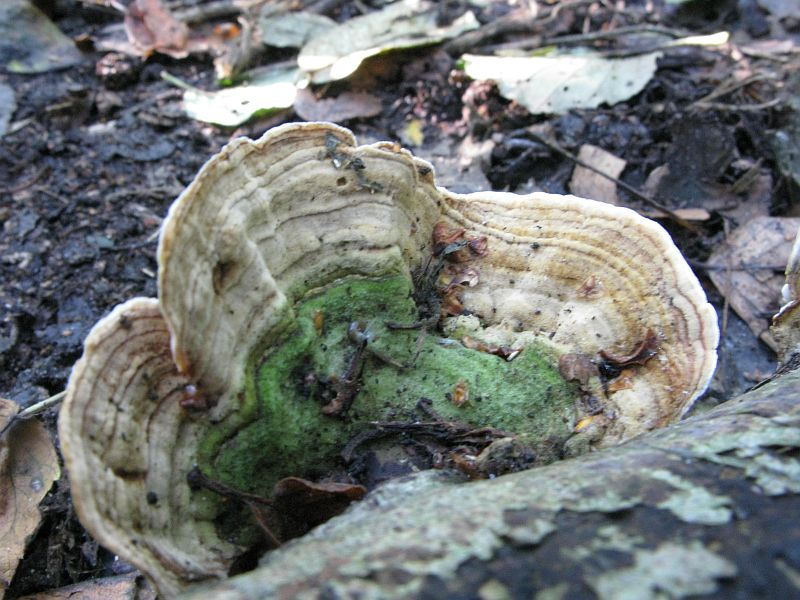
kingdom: Fungi
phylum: Basidiomycota
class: Agaricomycetes
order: Russulales
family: Stereaceae
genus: Stereum
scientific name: Stereum subtomentosum
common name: smuk lædersvamp
